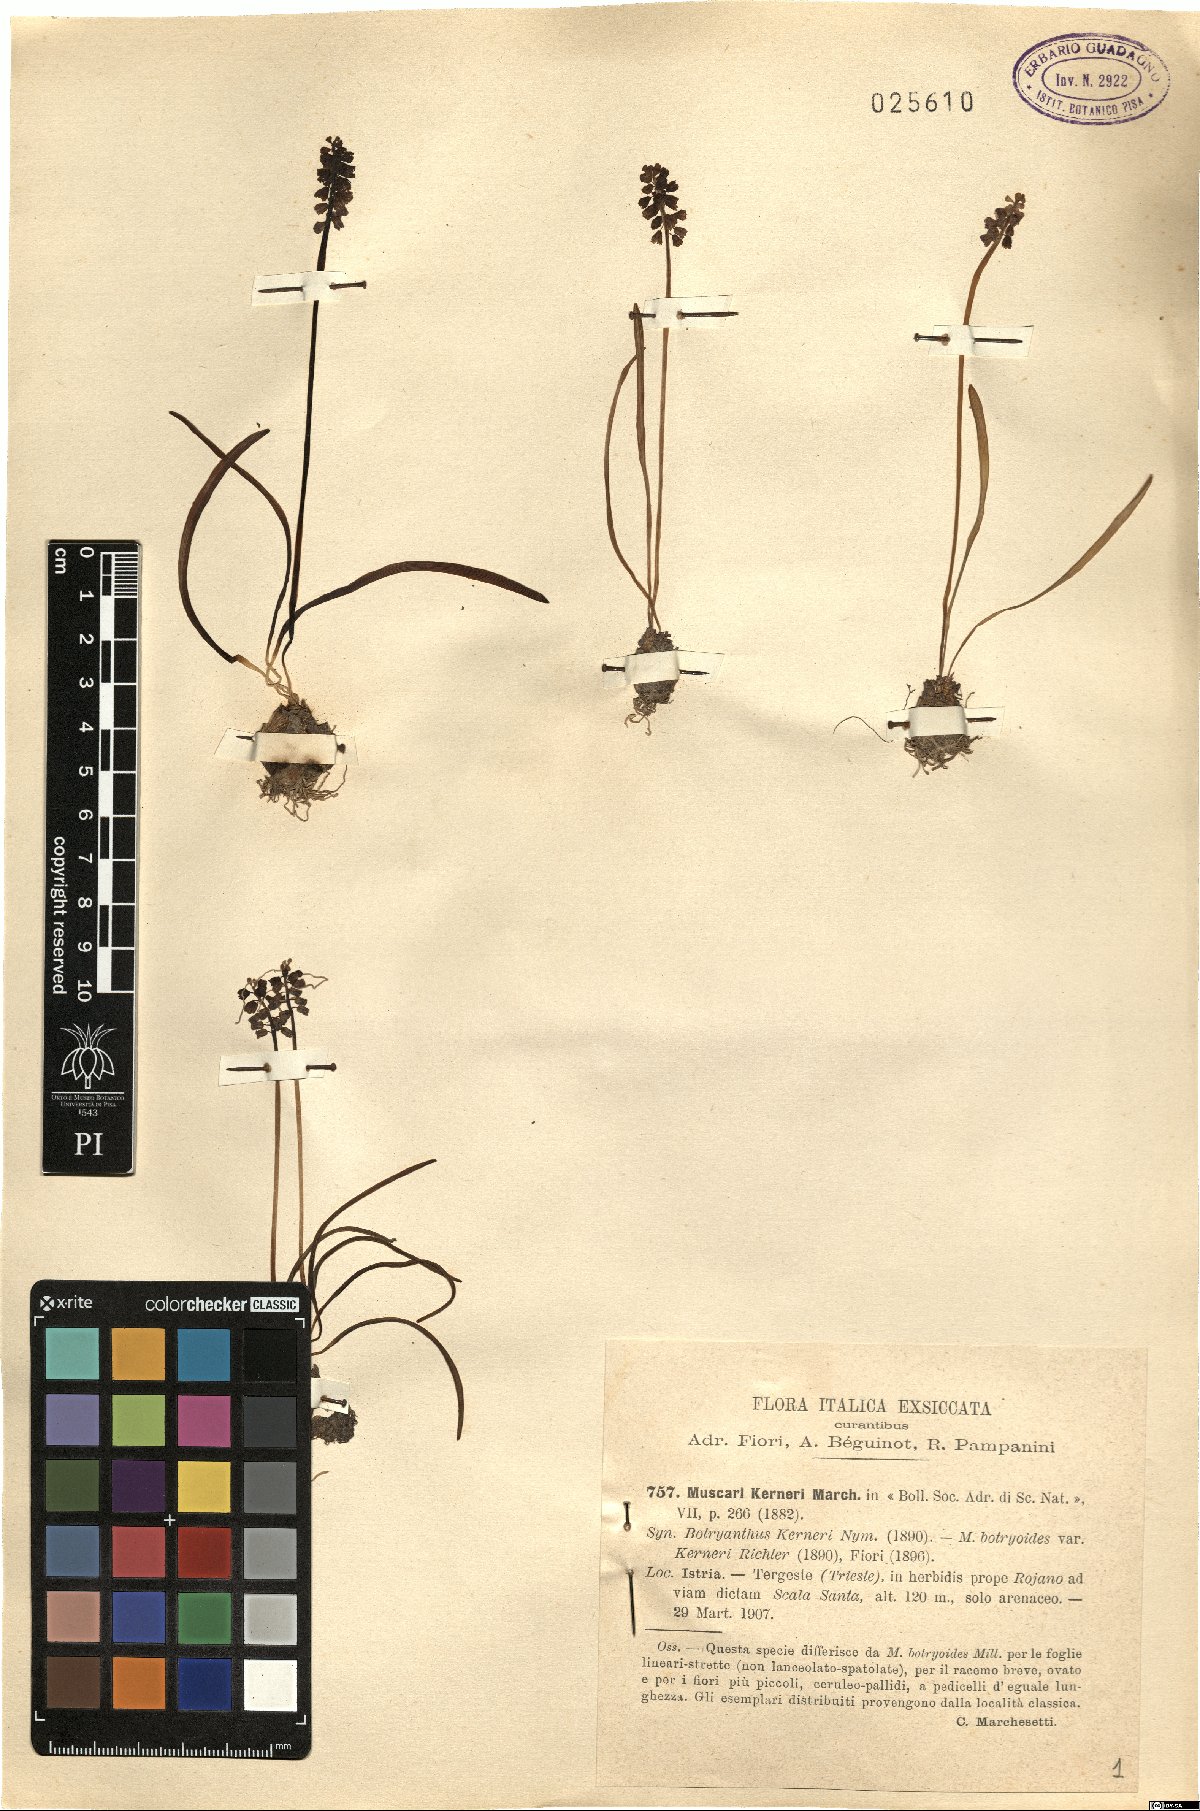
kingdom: Plantae
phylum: Tracheophyta
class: Liliopsida
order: Asparagales
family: Asparagaceae
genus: Muscari
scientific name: Muscari botryoides
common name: Compact grape-hyacinth
